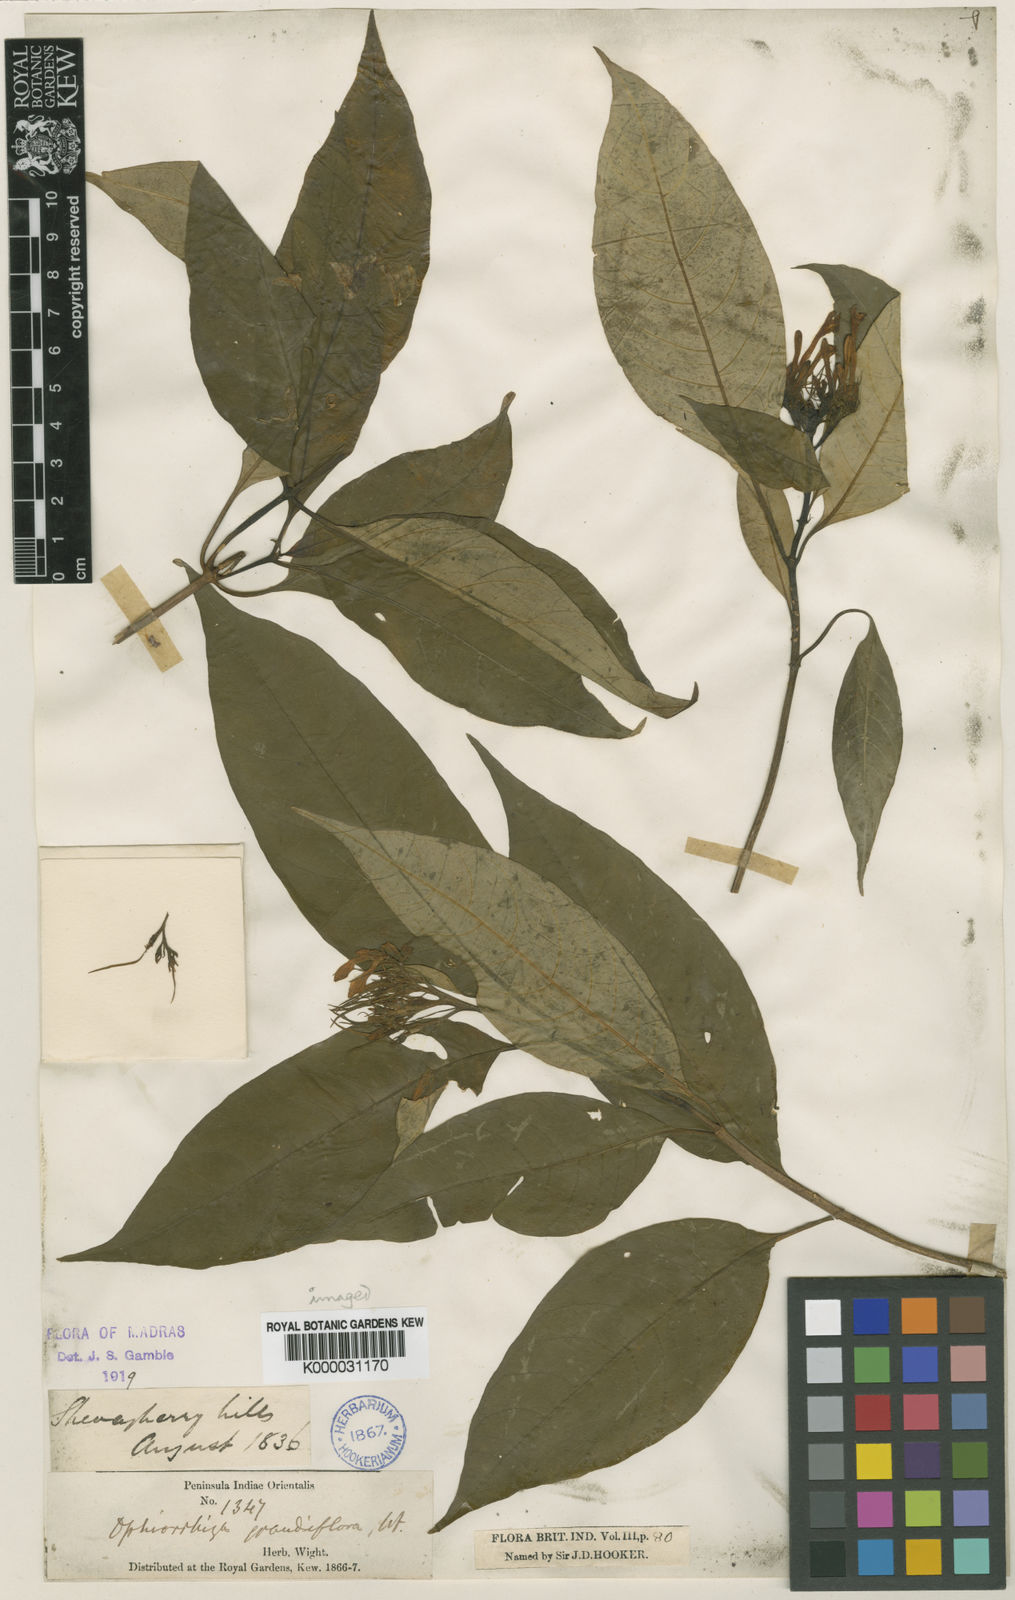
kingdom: Plantae
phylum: Tracheophyta
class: Magnoliopsida
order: Gentianales
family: Rubiaceae
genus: Ophiorrhiza
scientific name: Ophiorrhiza grandiflora
